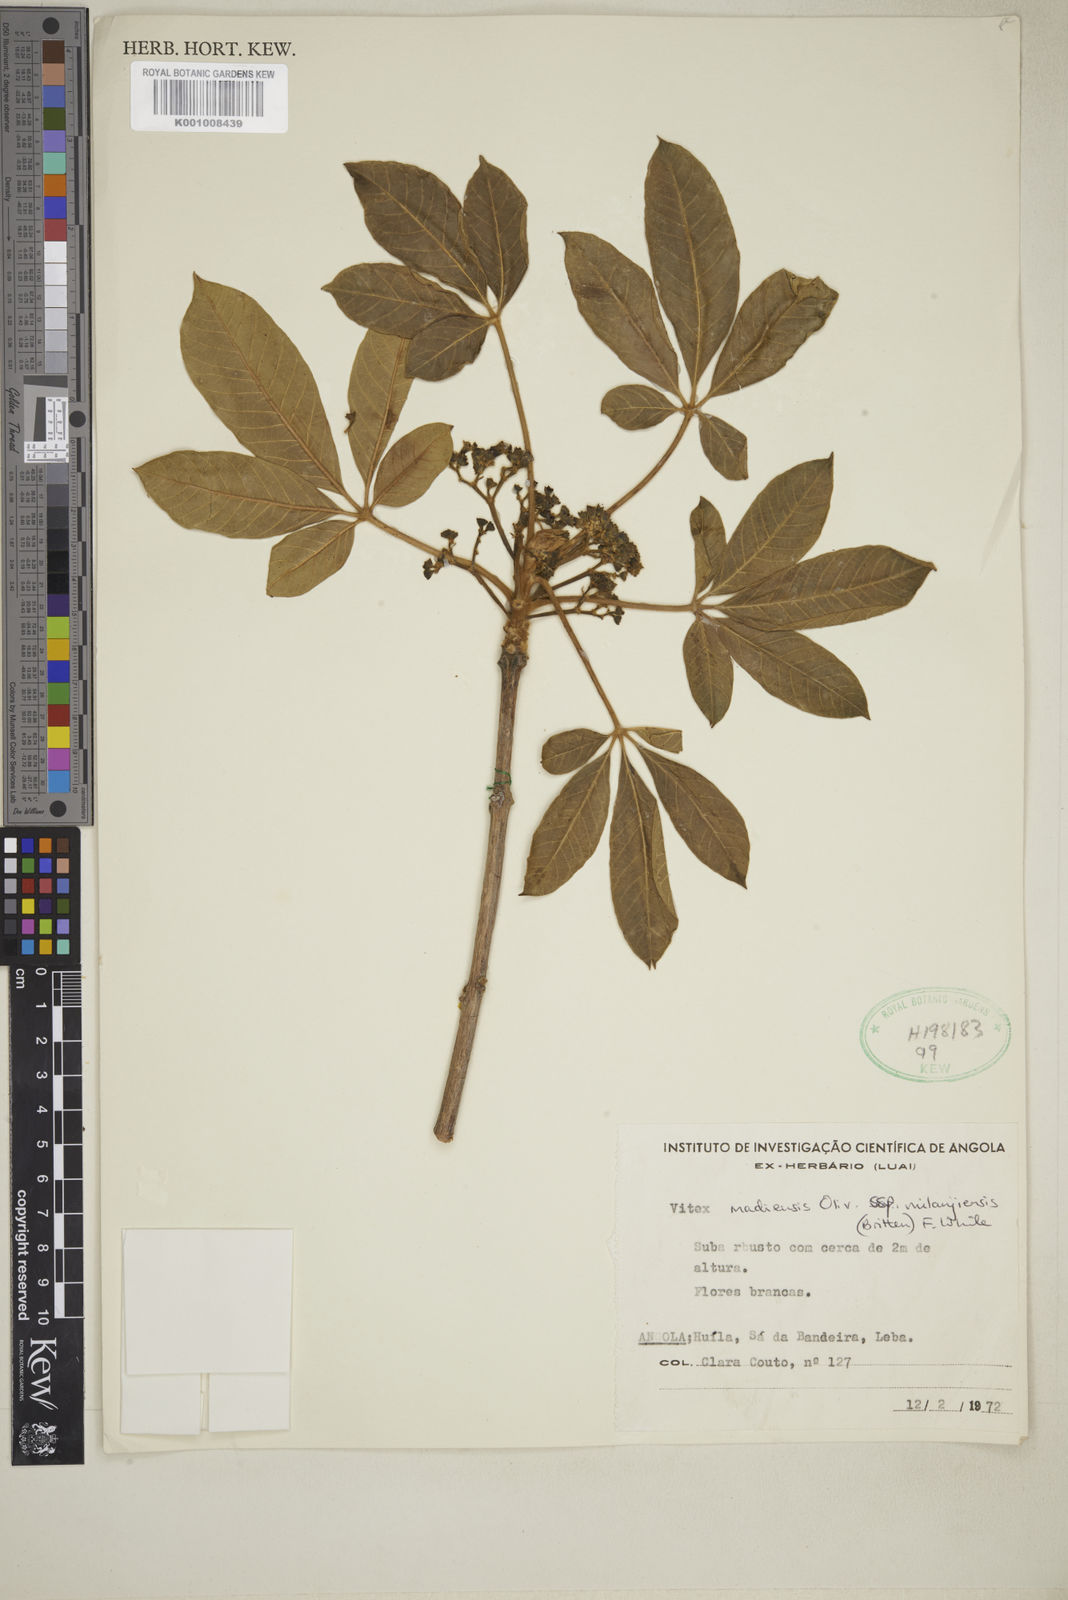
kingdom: Plantae
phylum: Tracheophyta
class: Magnoliopsida
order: Lamiales
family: Lamiaceae
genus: Vitex
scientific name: Vitex madiensis
